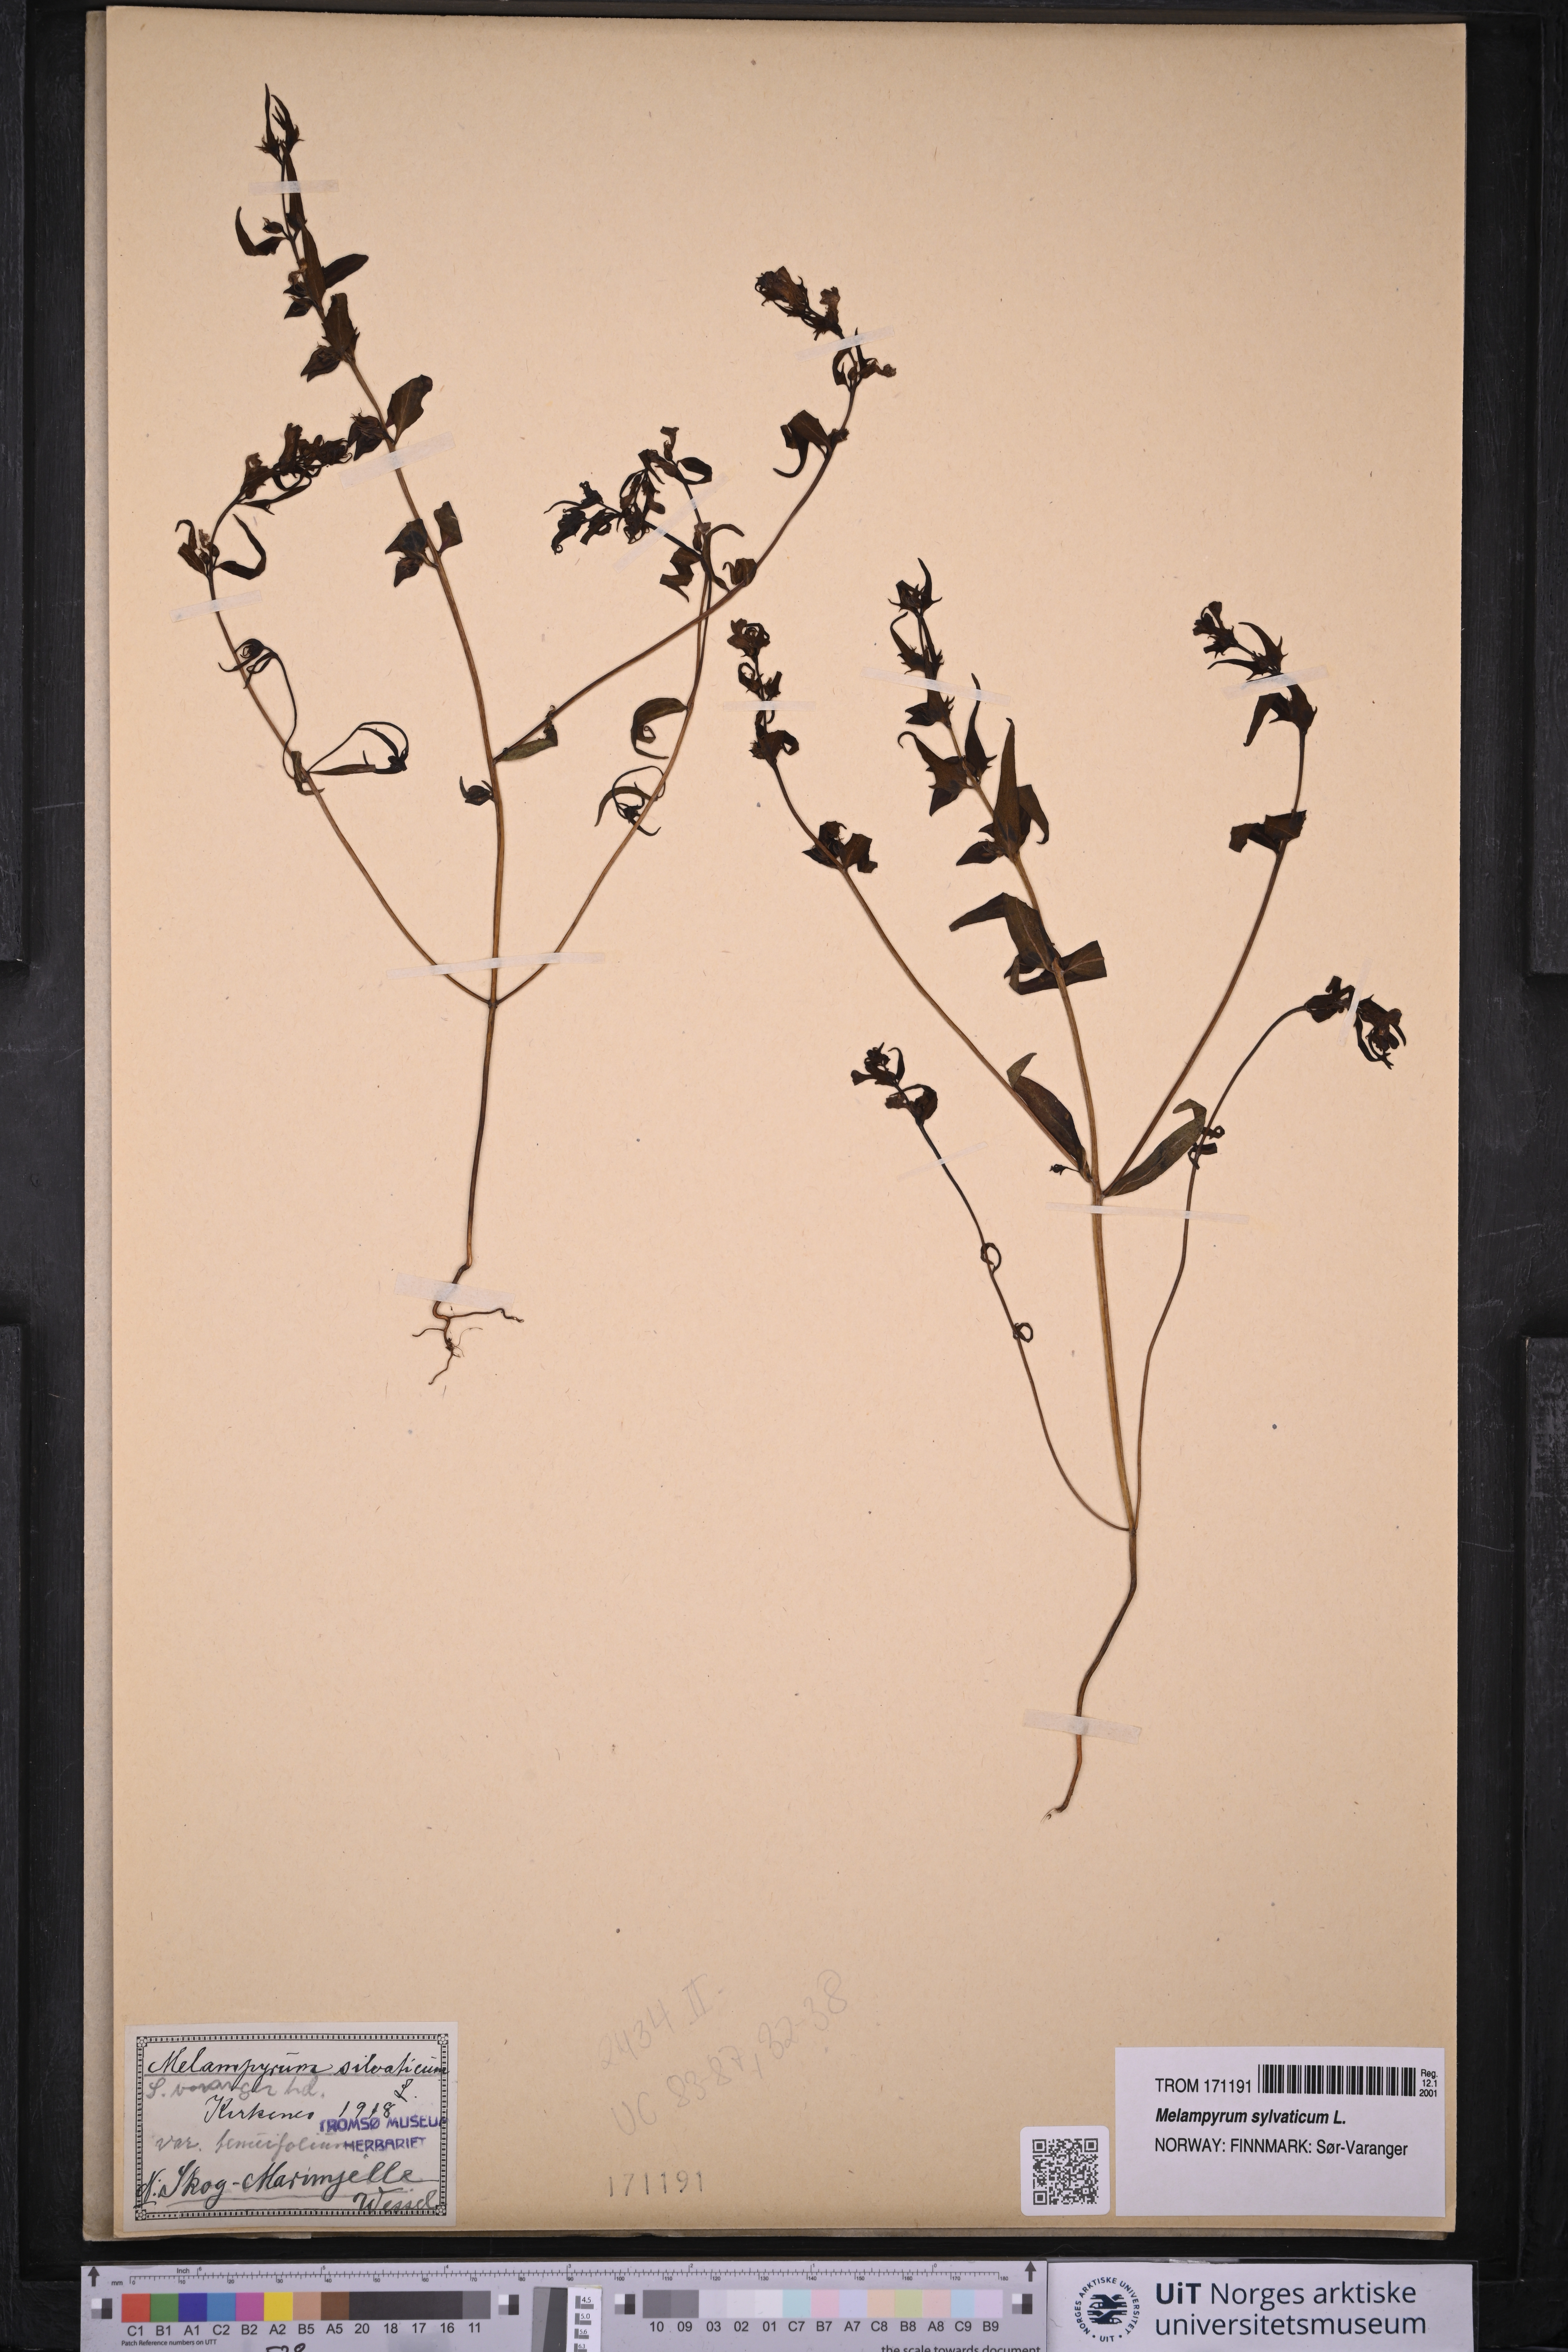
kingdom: Plantae
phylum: Tracheophyta
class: Magnoliopsida
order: Lamiales
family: Orobanchaceae
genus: Melampyrum
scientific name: Melampyrum sylvaticum
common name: Small cow-wheat
